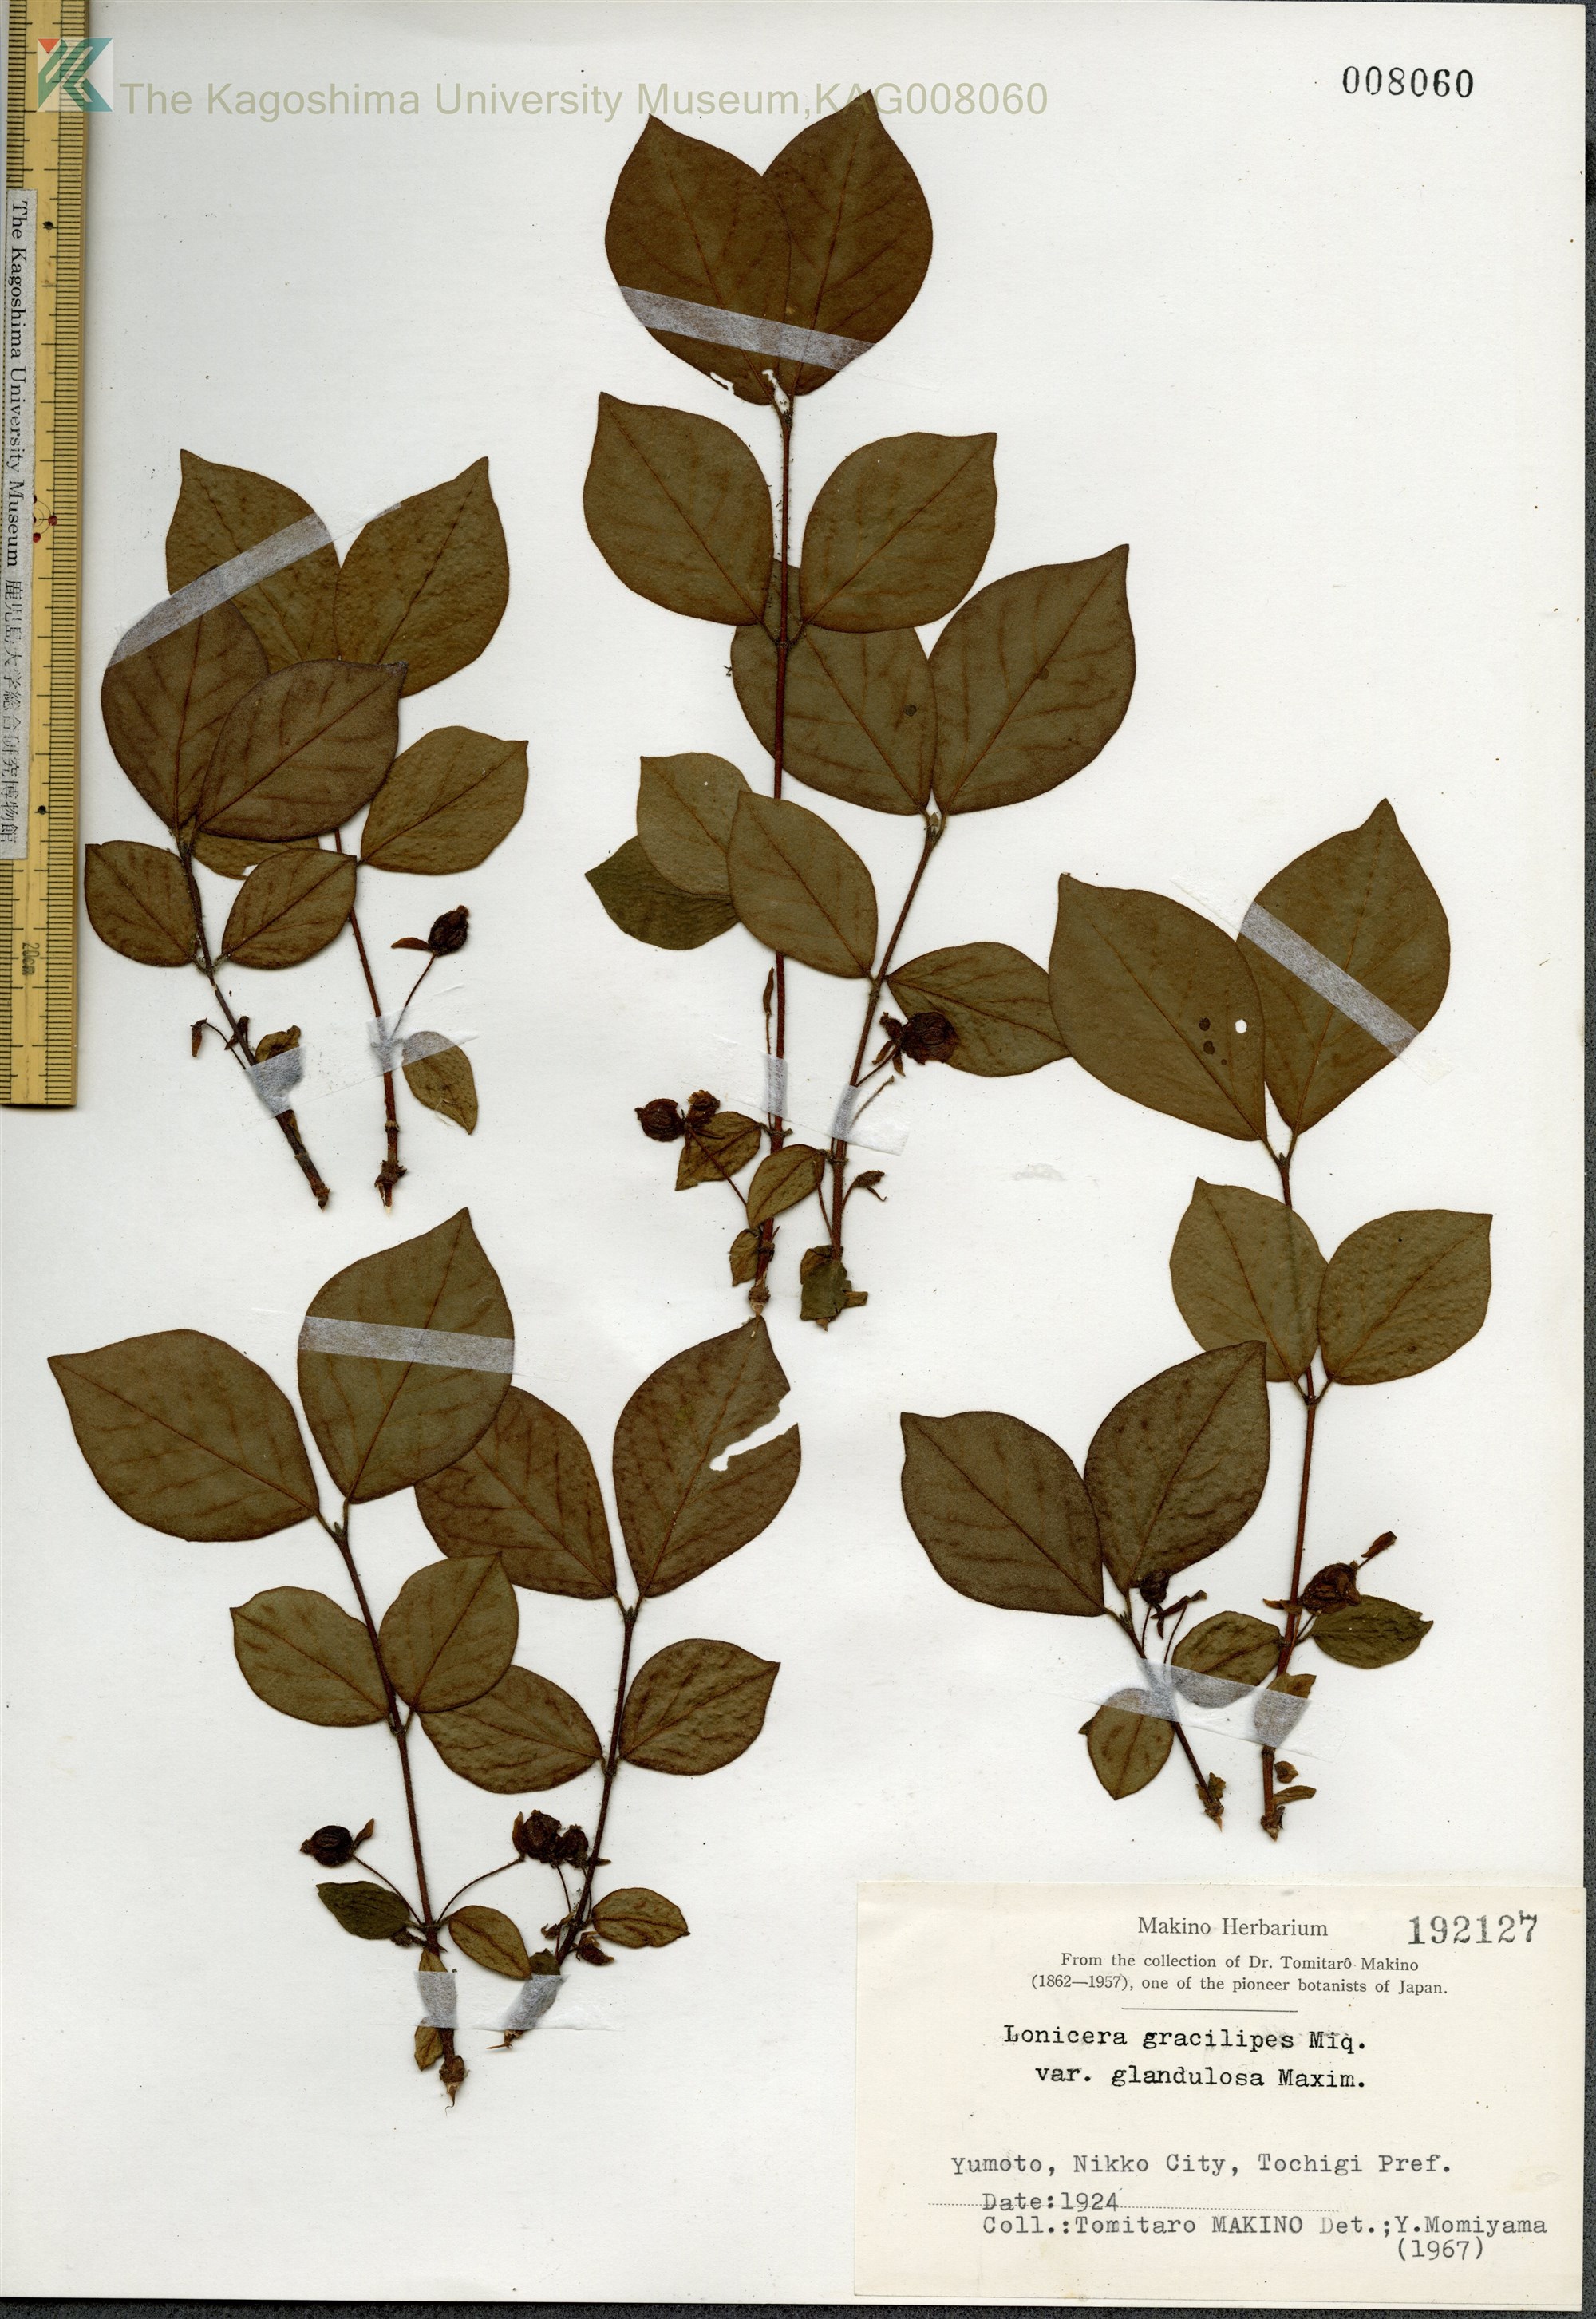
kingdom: Plantae
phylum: Tracheophyta
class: Magnoliopsida
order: Dipsacales
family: Caprifoliaceae
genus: Lonicera
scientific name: Lonicera gracilipes
